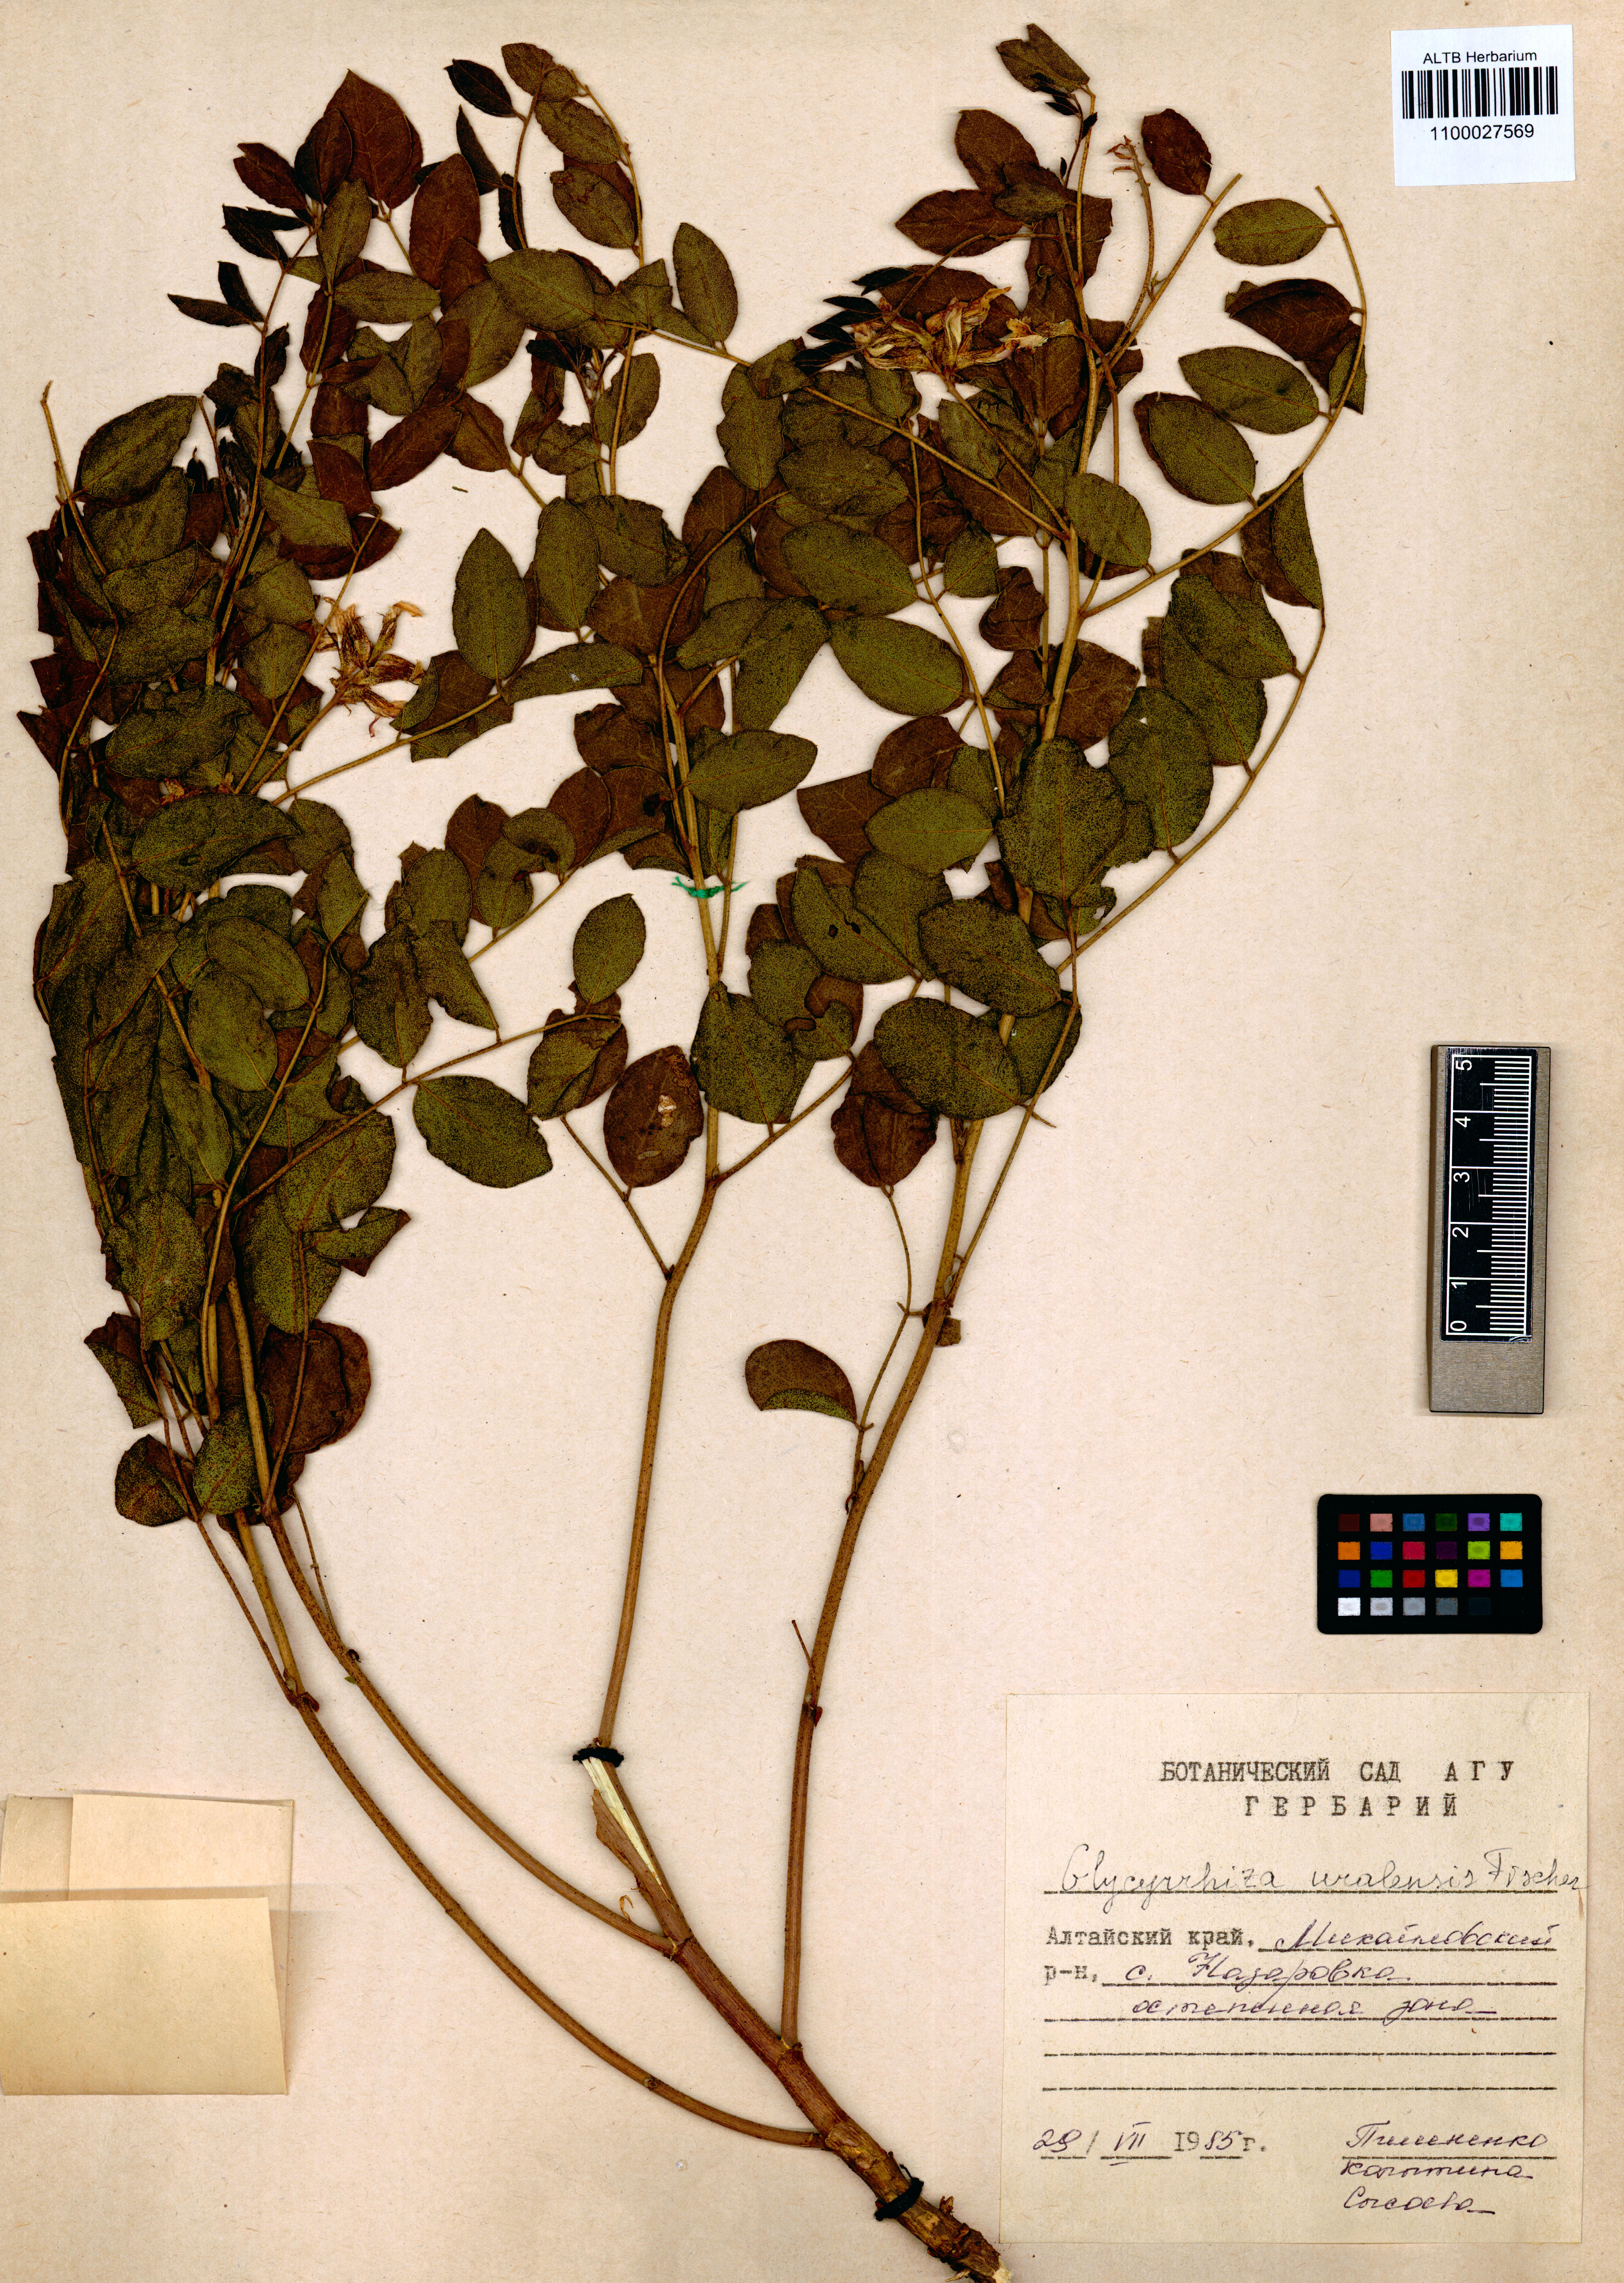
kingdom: Plantae
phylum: Tracheophyta
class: Magnoliopsida
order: Fabales
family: Fabaceae
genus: Glycyrrhiza
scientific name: Glycyrrhiza uralensis
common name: Chinese licorice
